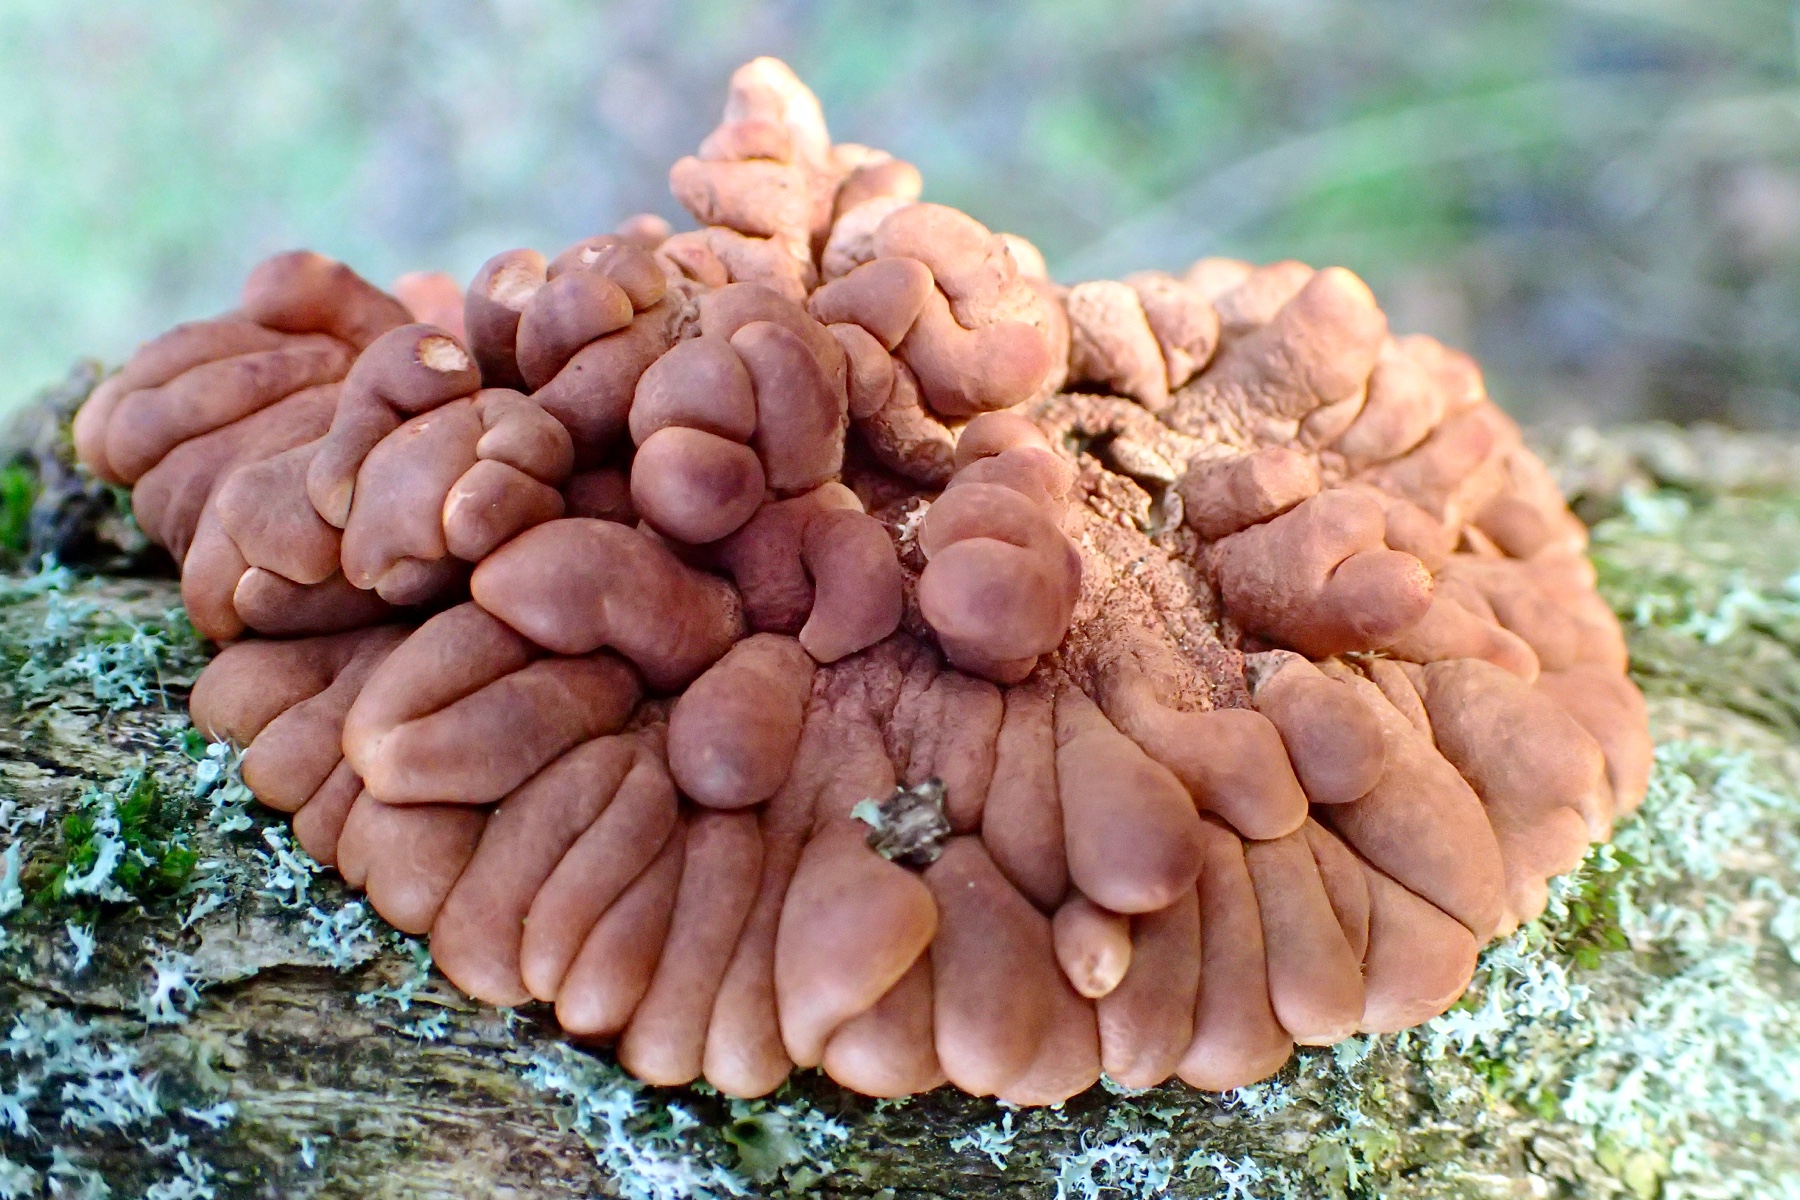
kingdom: Fungi
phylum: Ascomycota
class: Sordariomycetes
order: Hypocreales
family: Hypocreaceae
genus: Hypocreopsis
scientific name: Hypocreopsis lichenoides
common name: pilfinger
